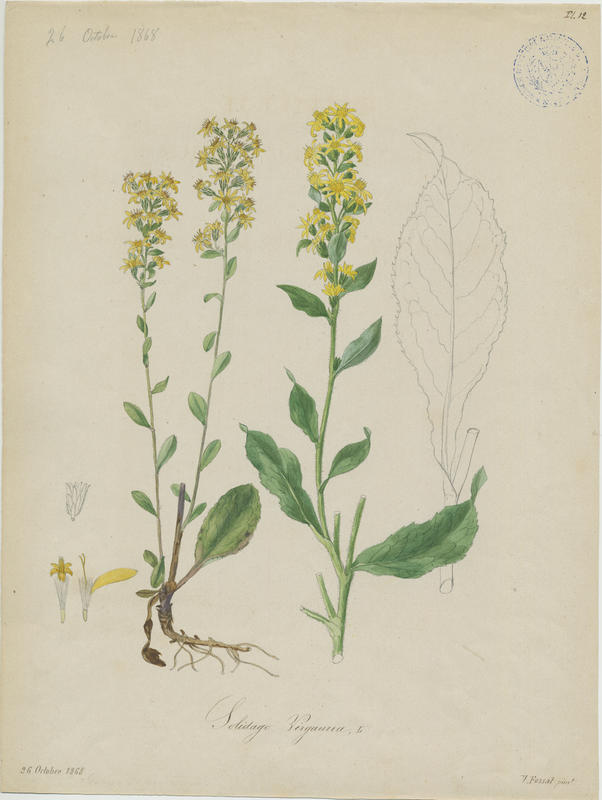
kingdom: Plantae
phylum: Tracheophyta
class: Magnoliopsida
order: Asterales
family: Asteraceae
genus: Solidago
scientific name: Solidago virgaurea
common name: Goldenrod
